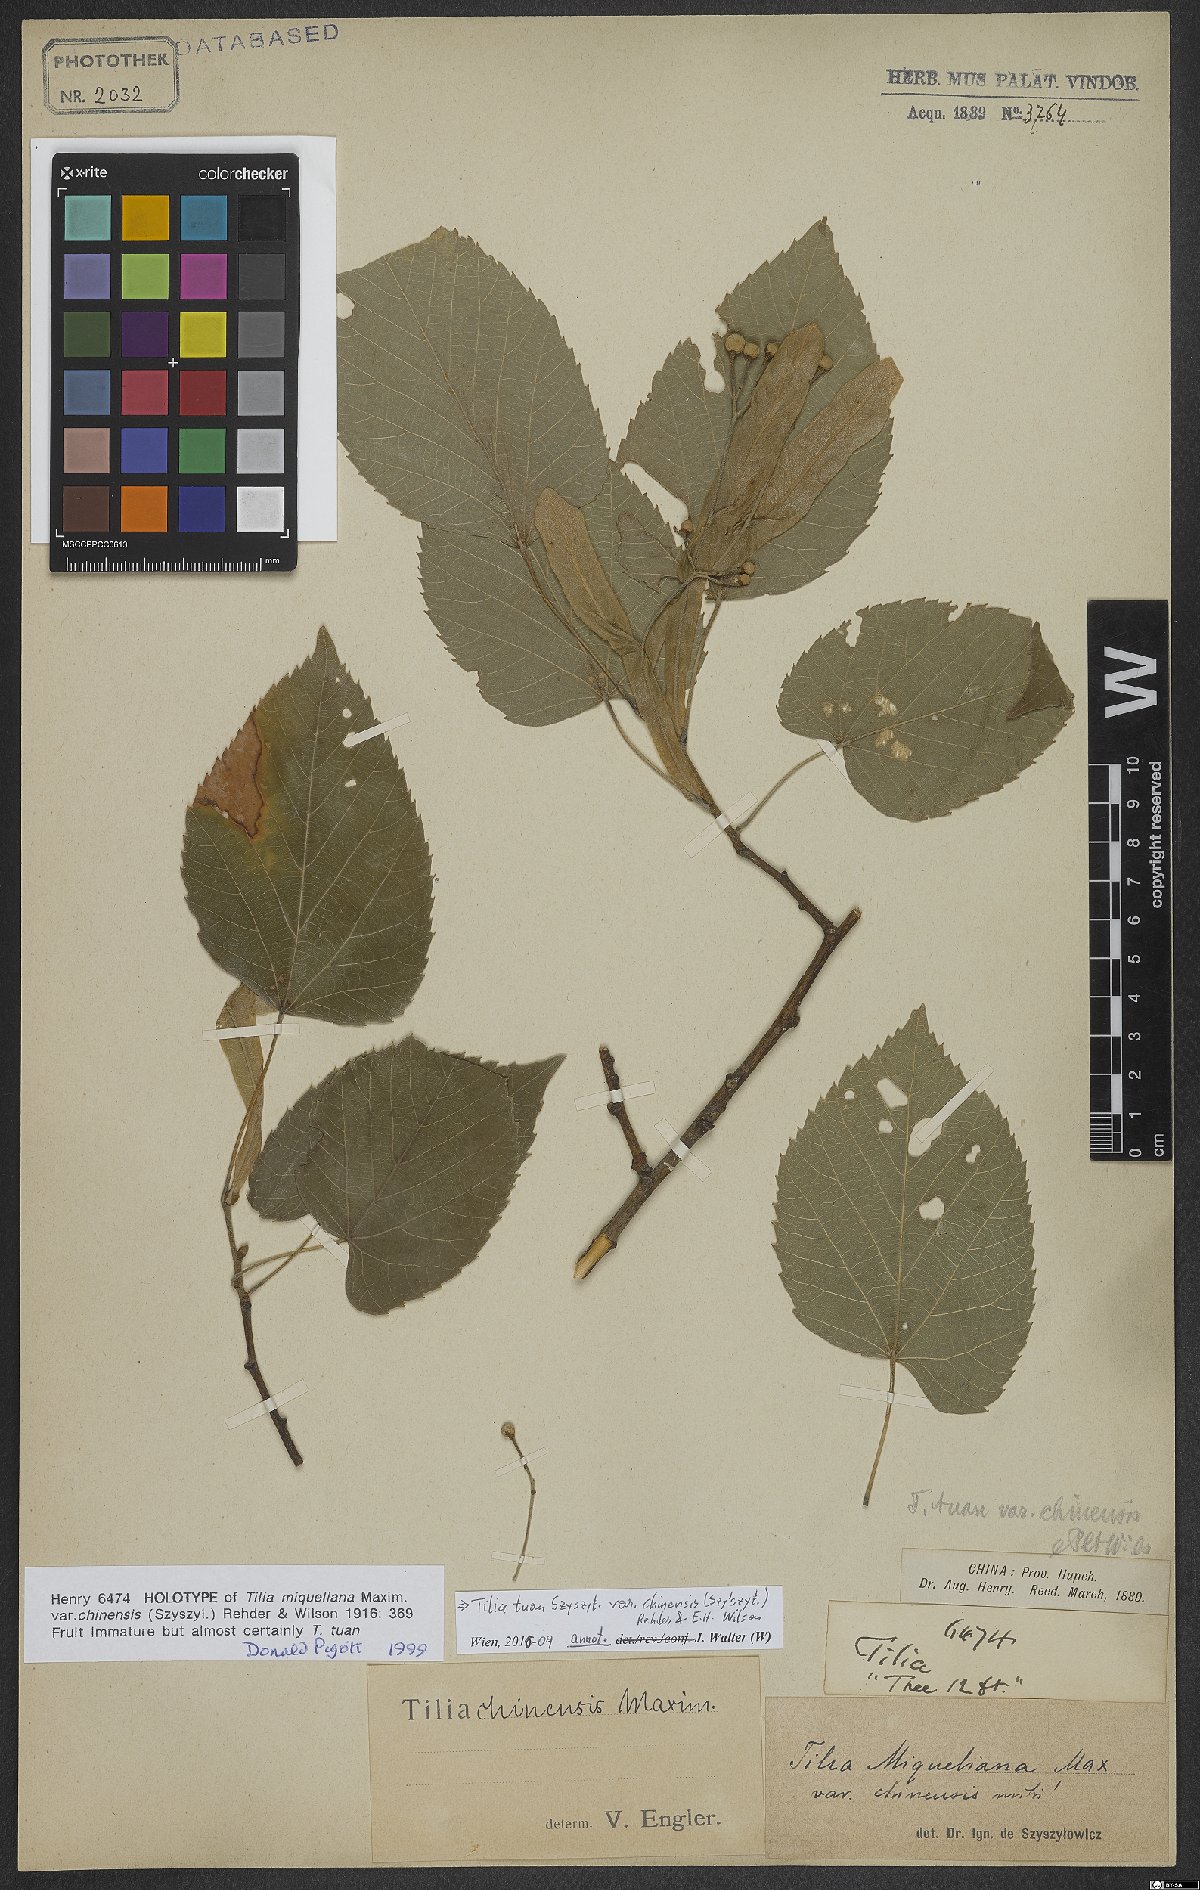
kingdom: Plantae
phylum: Tracheophyta
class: Magnoliopsida
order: Malvales
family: Malvaceae
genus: Tilia
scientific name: Tilia tuan
